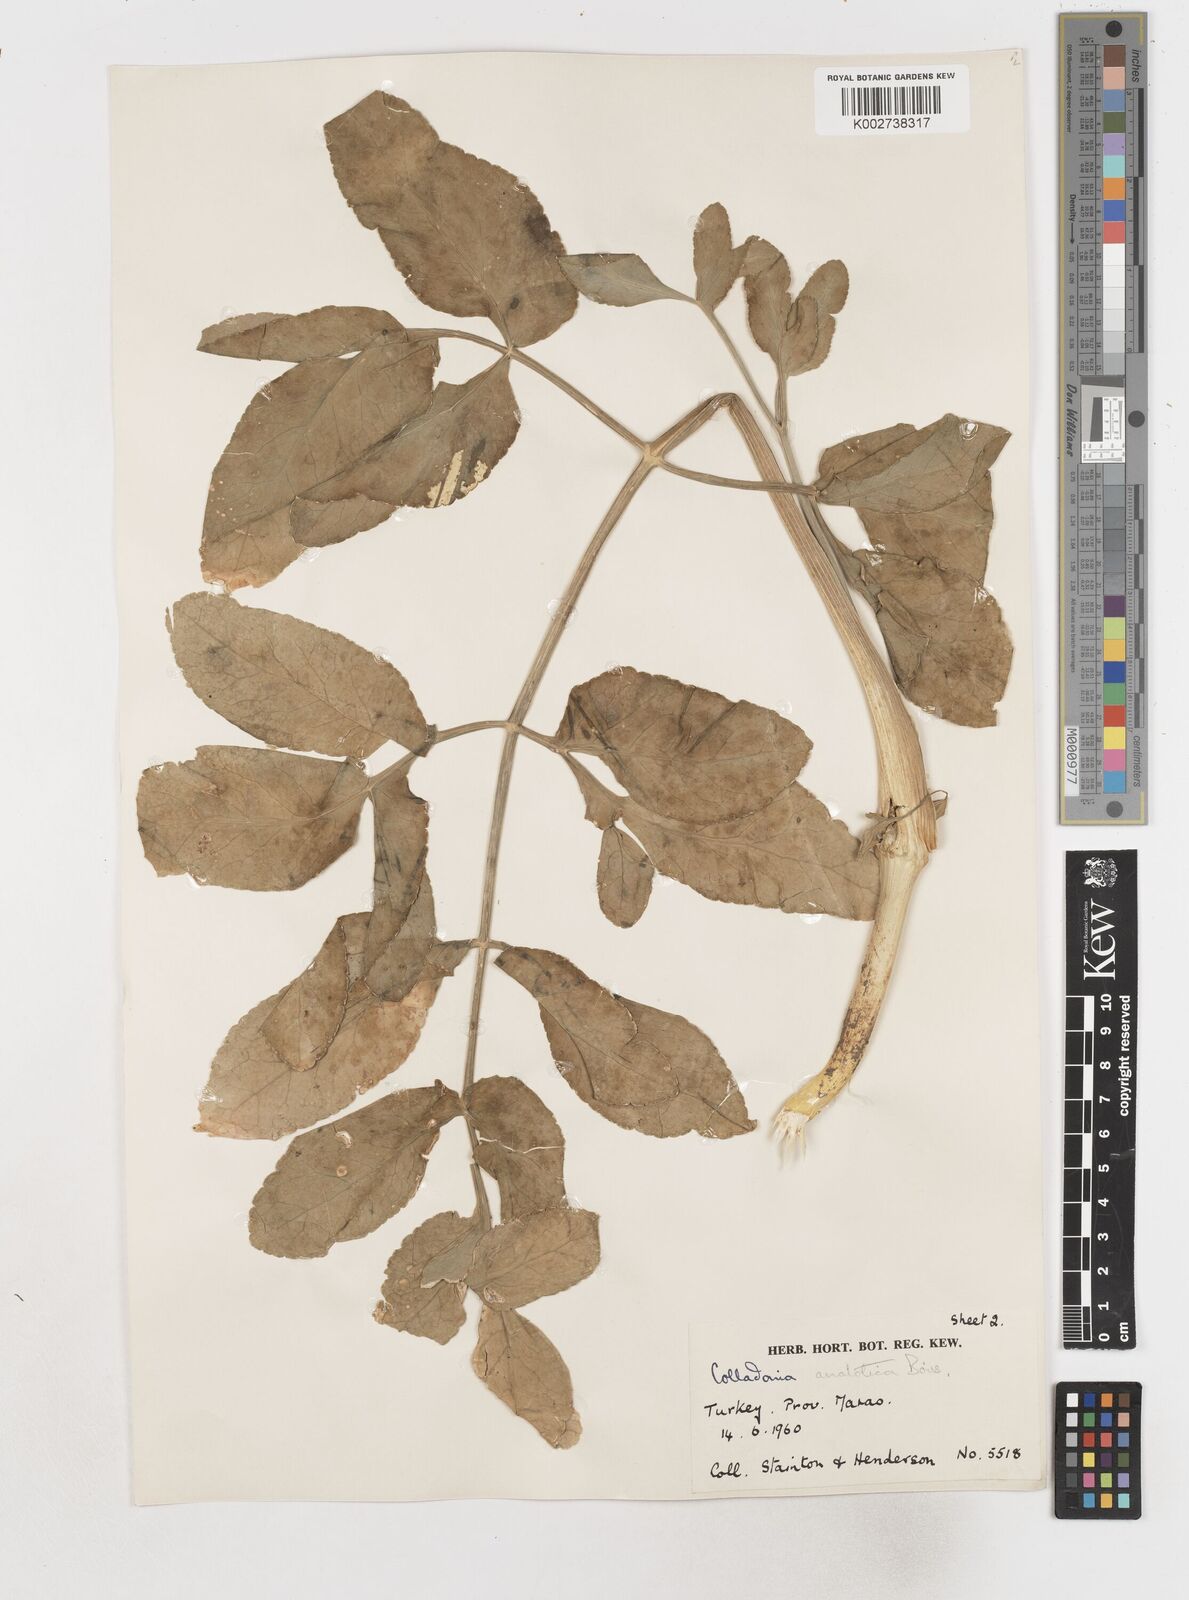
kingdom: Plantae
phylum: Tracheophyta
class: Magnoliopsida
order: Apiales
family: Apiaceae
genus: Heptaptera
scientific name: Heptaptera anatolica
